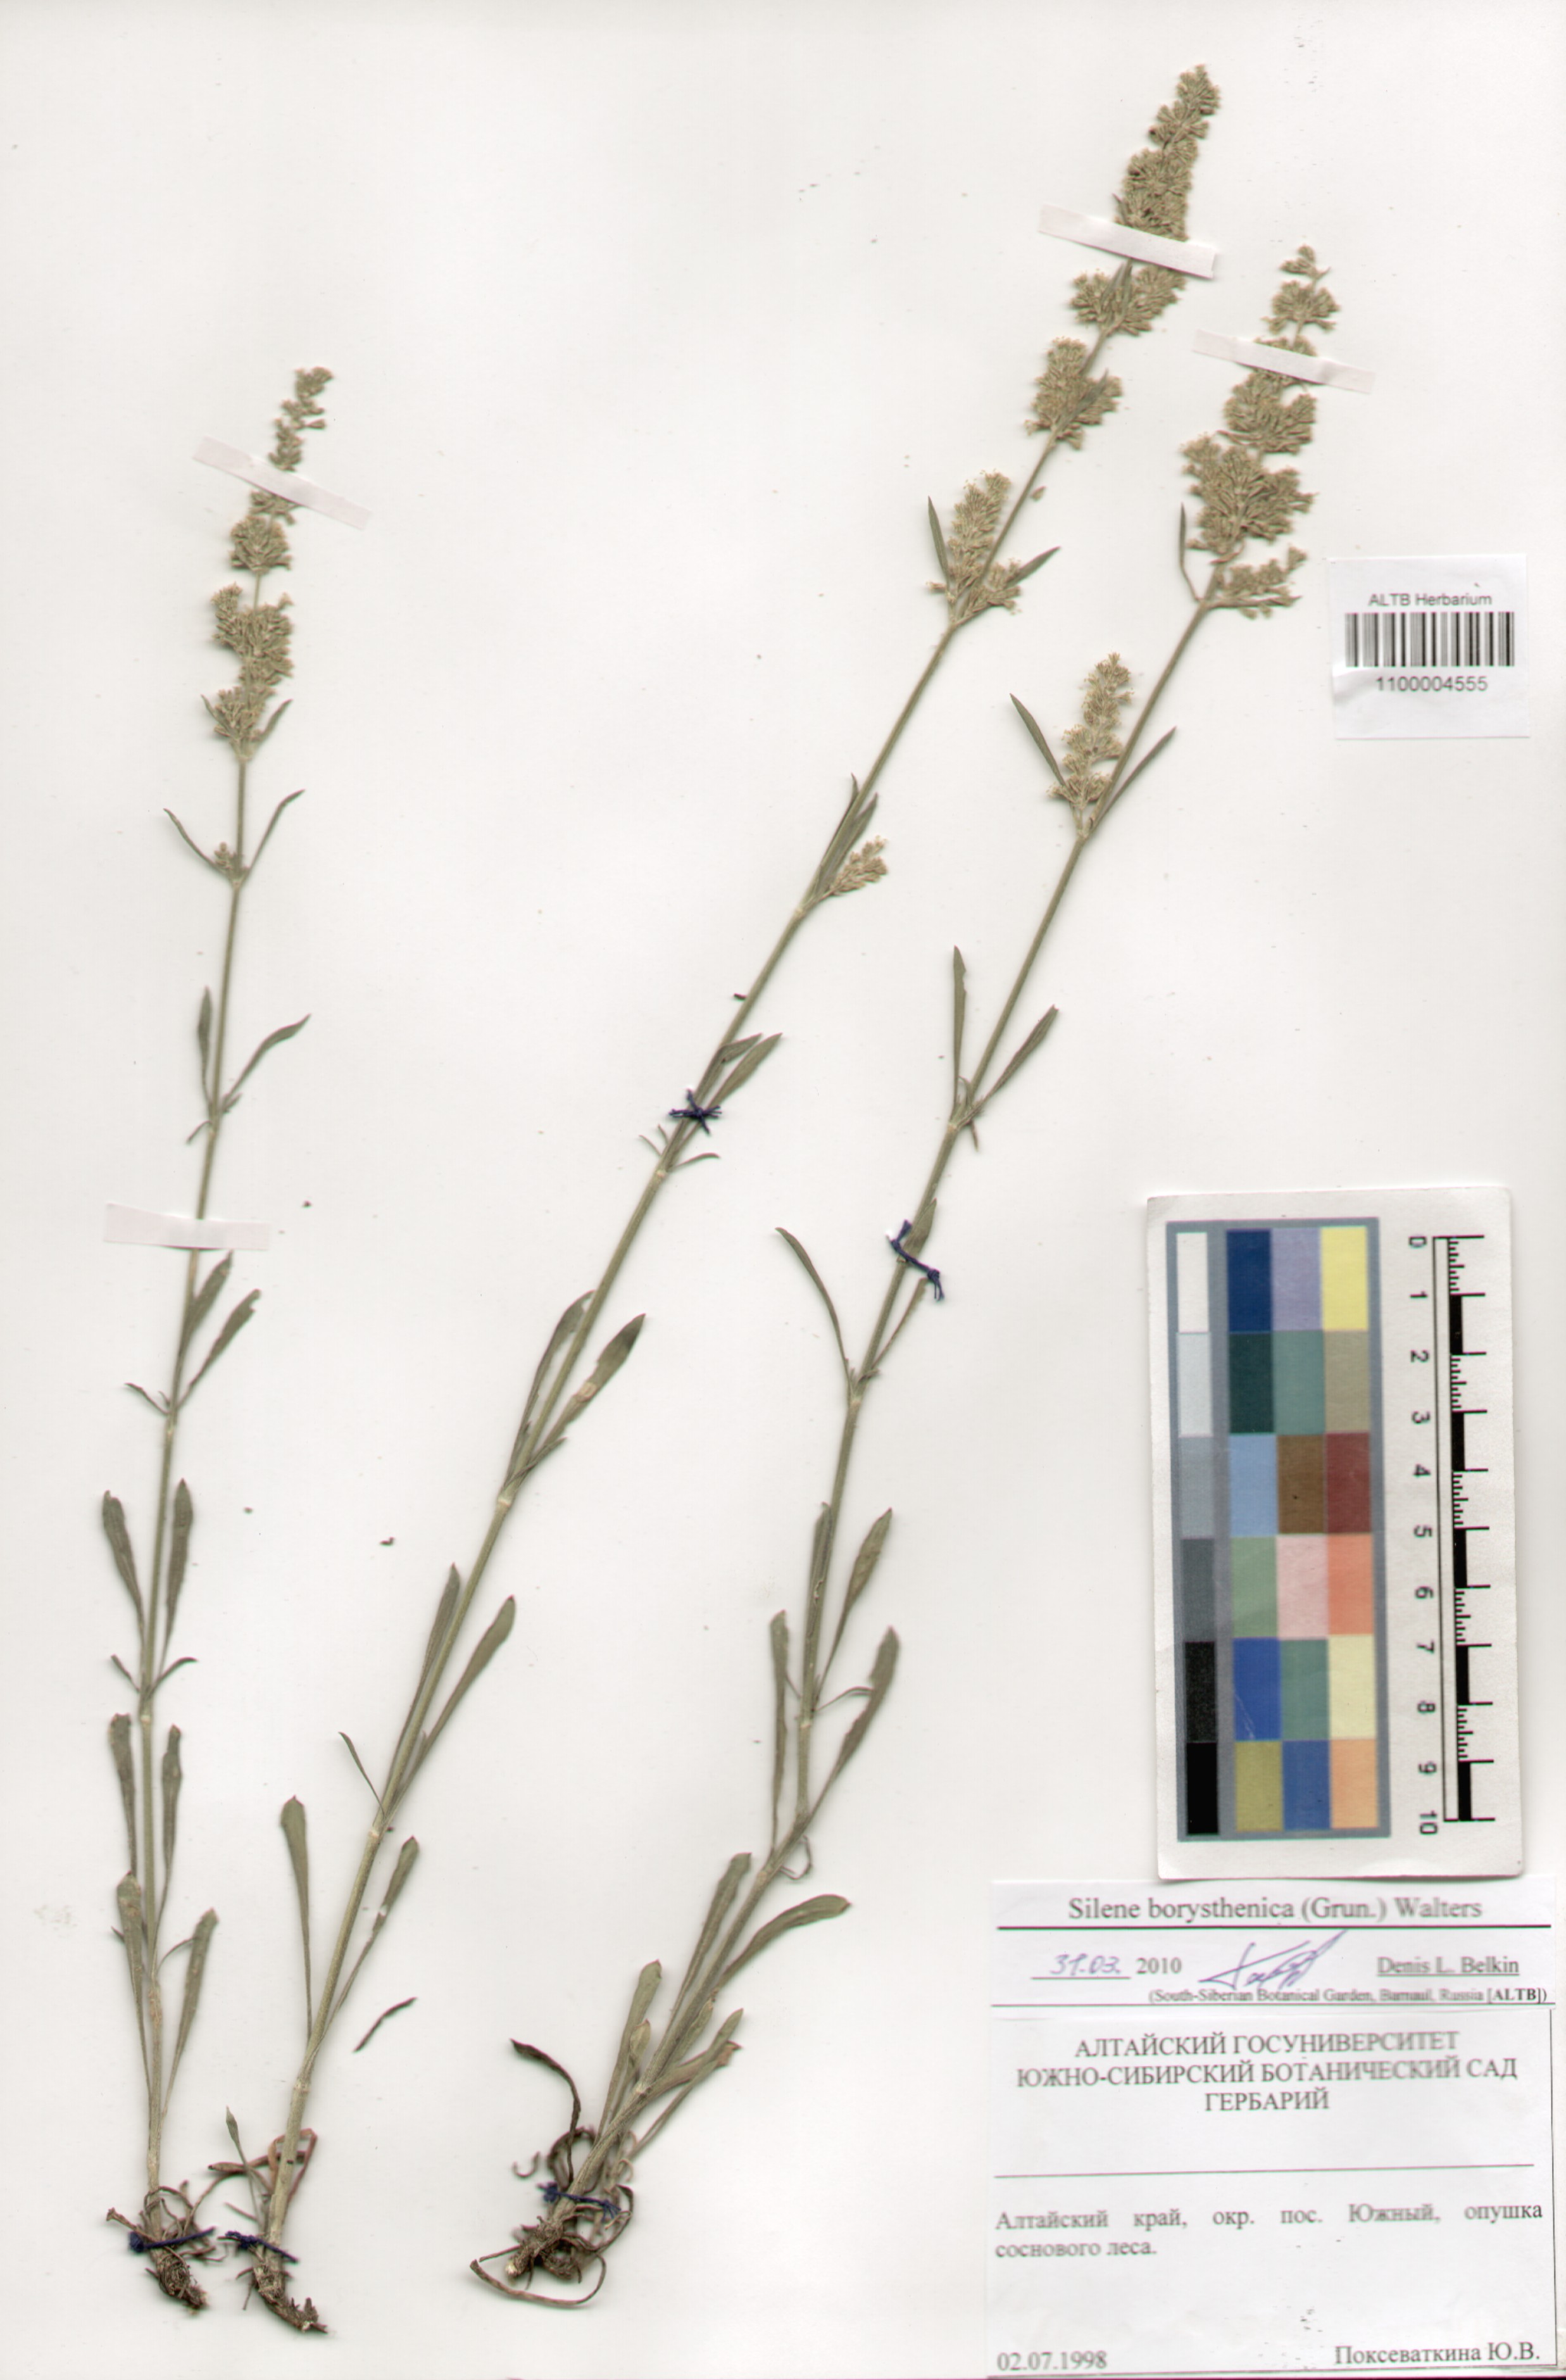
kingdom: Plantae
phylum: Tracheophyta
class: Magnoliopsida
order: Caryophyllales
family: Caryophyllaceae
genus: Silene
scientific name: Silene borysthenica
